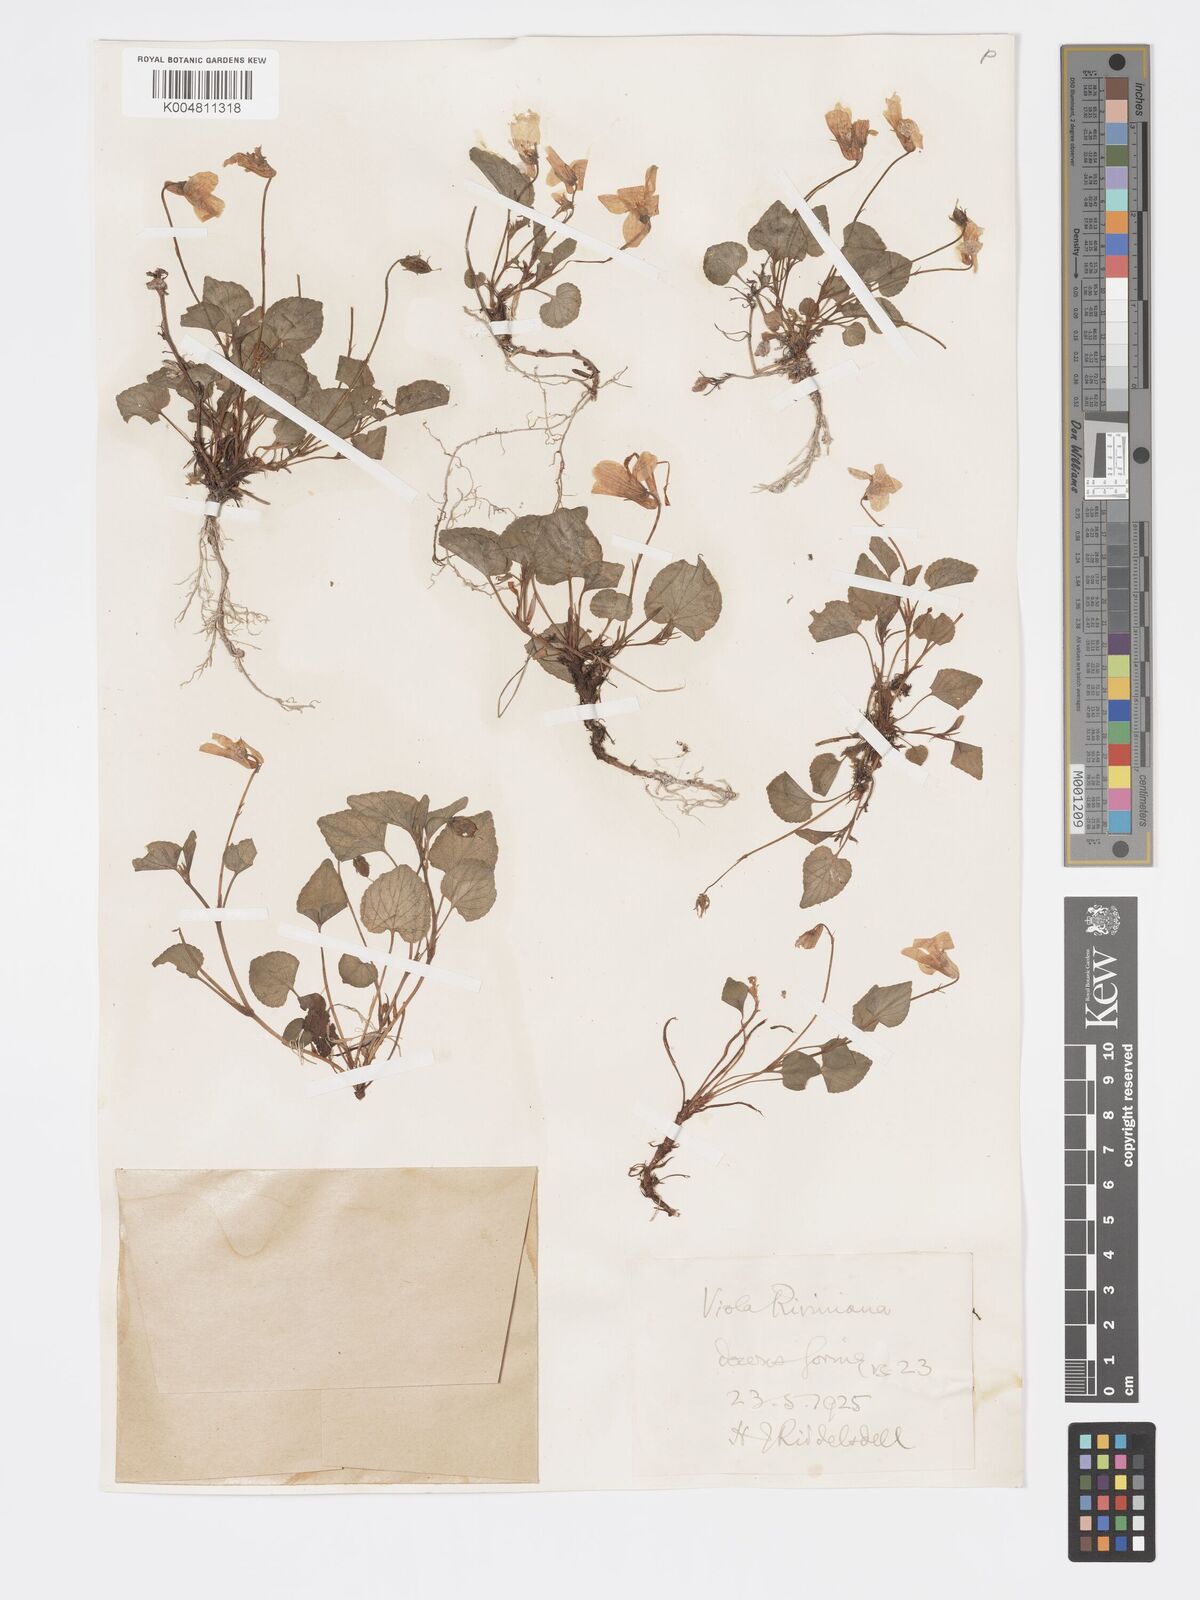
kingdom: Plantae
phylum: Tracheophyta
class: Magnoliopsida
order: Malpighiales
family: Violaceae
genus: Viola
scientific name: Viola riviniana
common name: Common dog-violet
